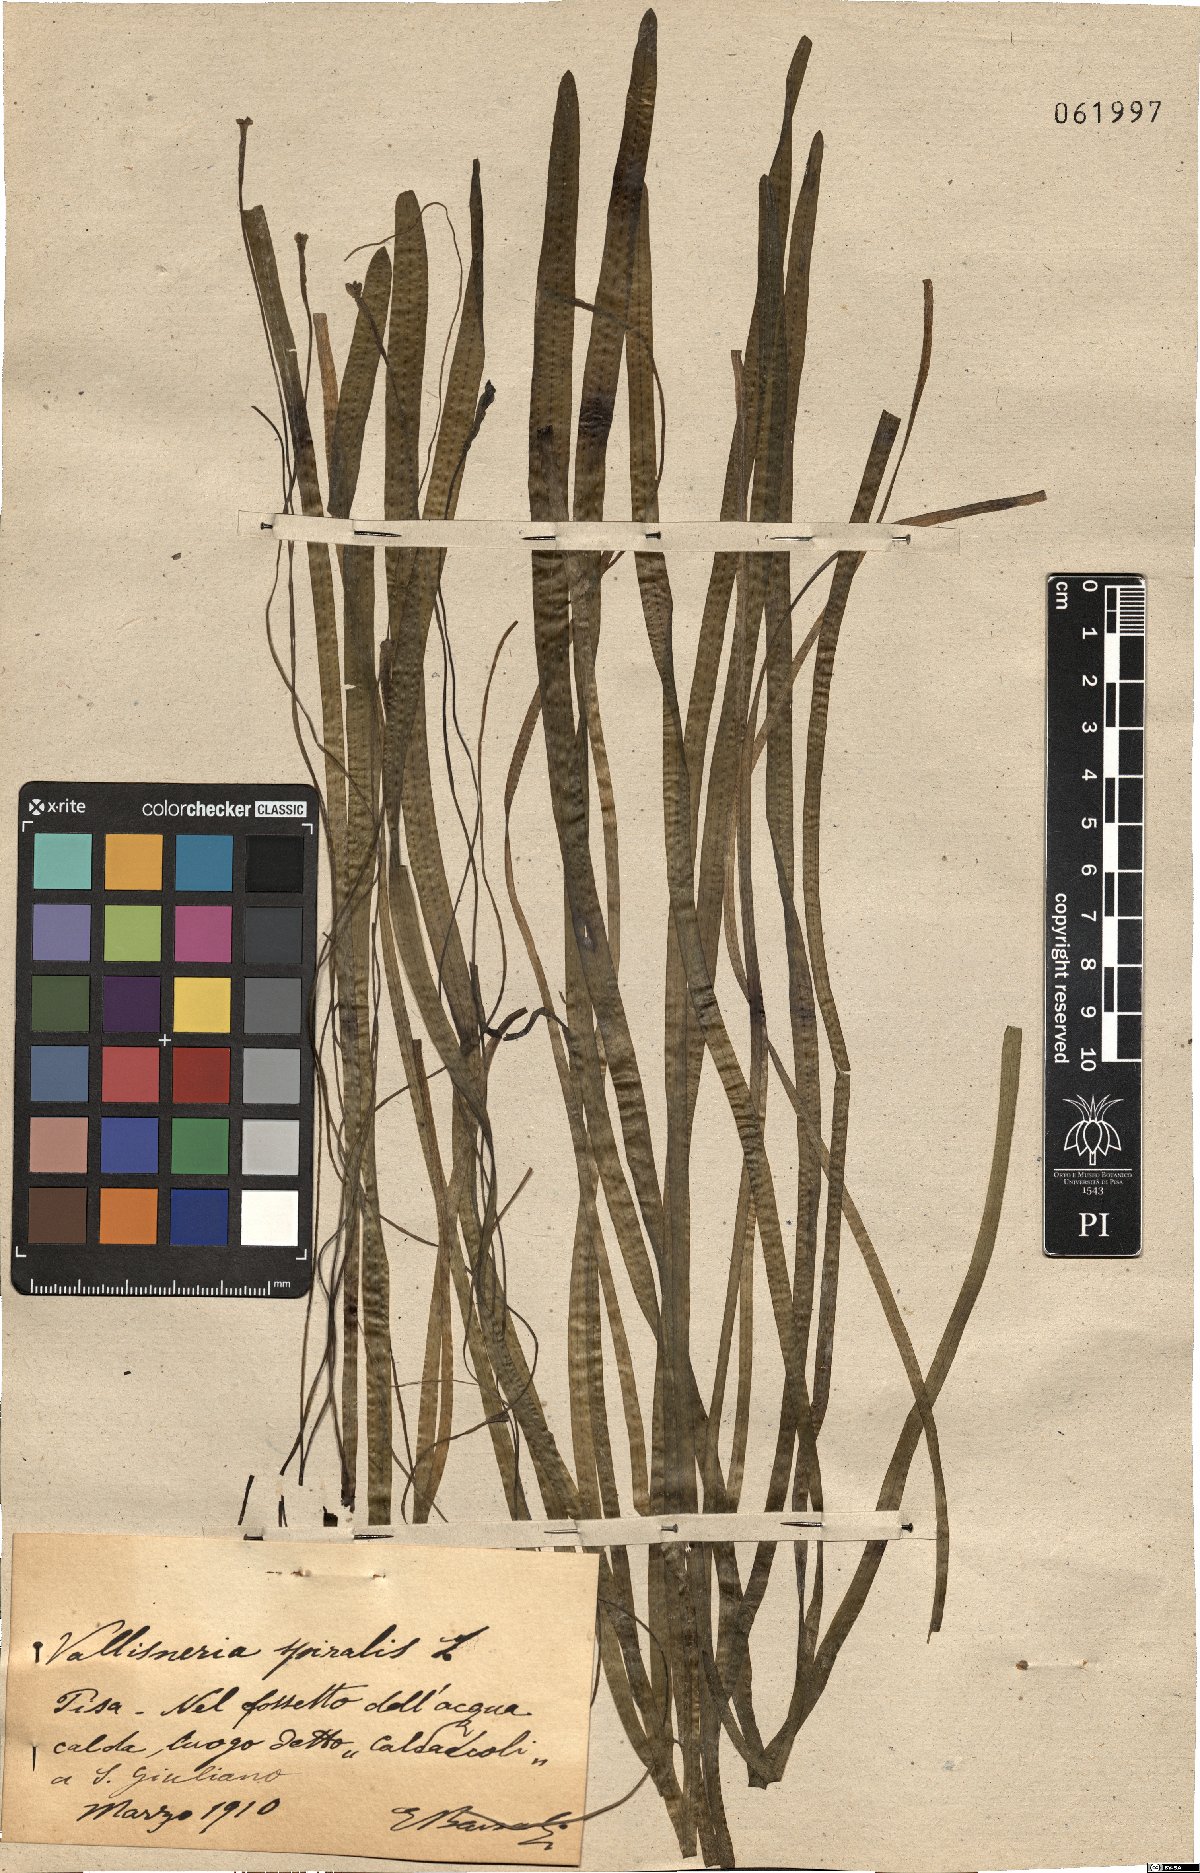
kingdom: Plantae
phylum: Tracheophyta
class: Liliopsida
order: Alismatales
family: Hydrocharitaceae
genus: Vallisneria
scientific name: Vallisneria spiralis
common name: Tapegrass
